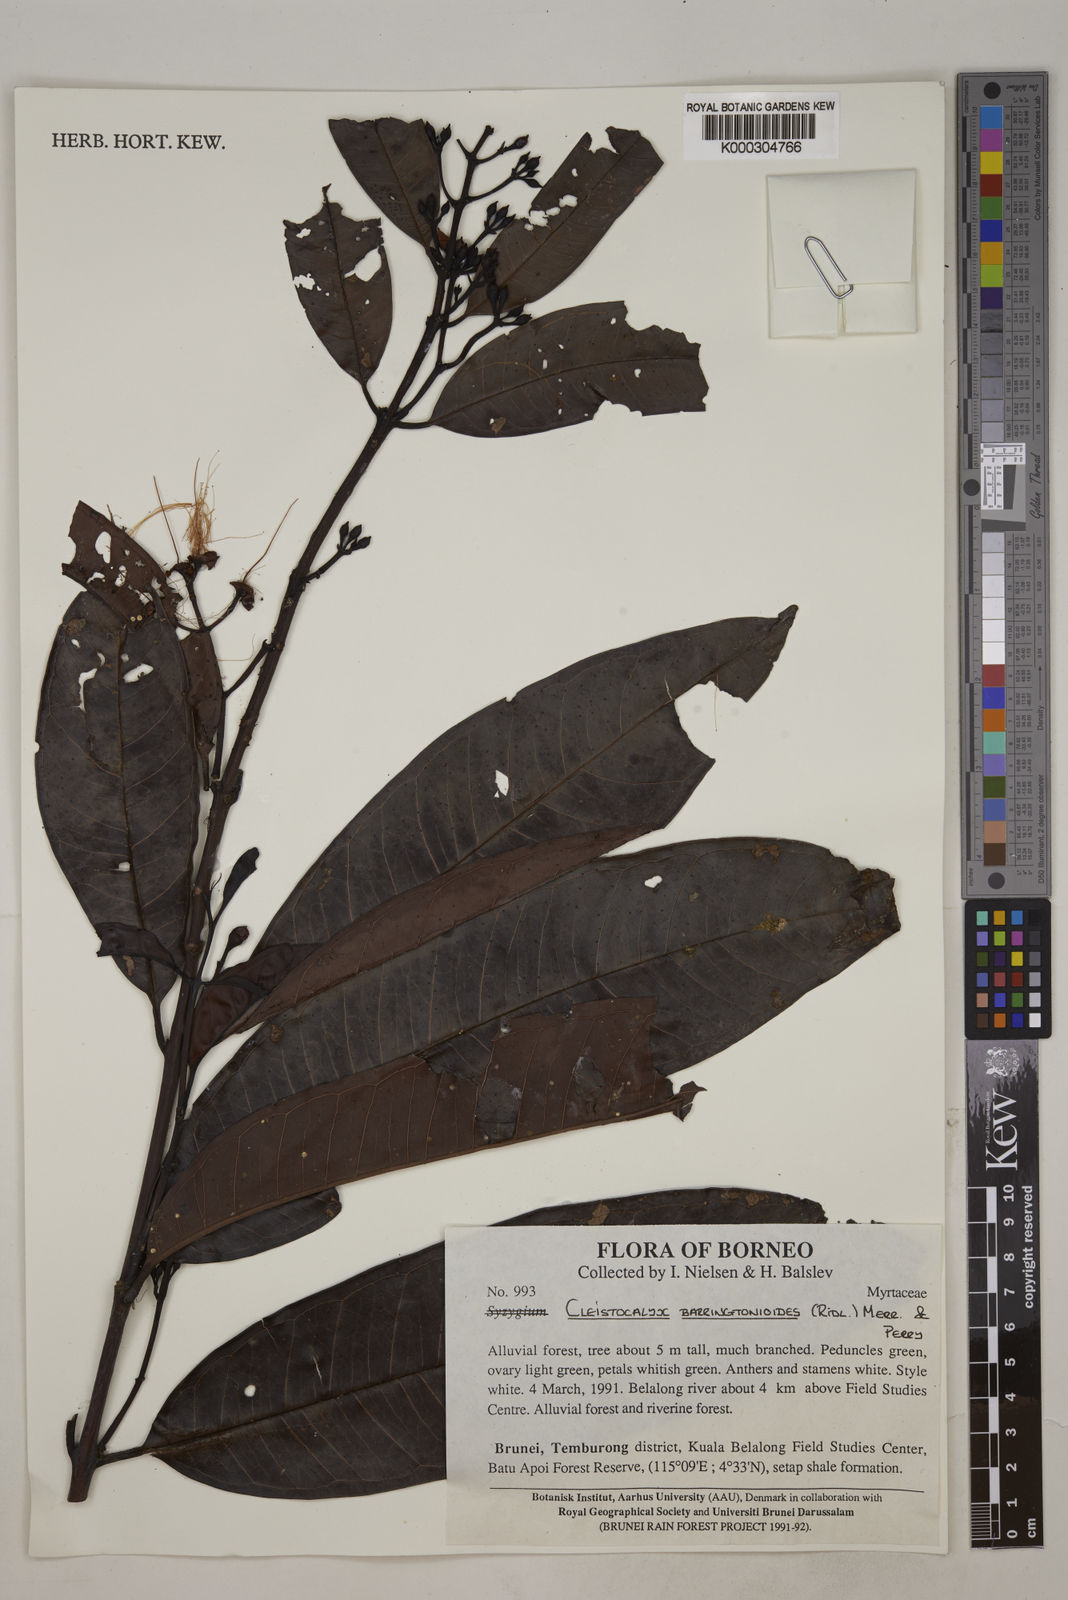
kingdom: Plantae
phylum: Tracheophyta
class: Magnoliopsida
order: Myrtales
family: Myrtaceae
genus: Syzygium
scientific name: Syzygium
